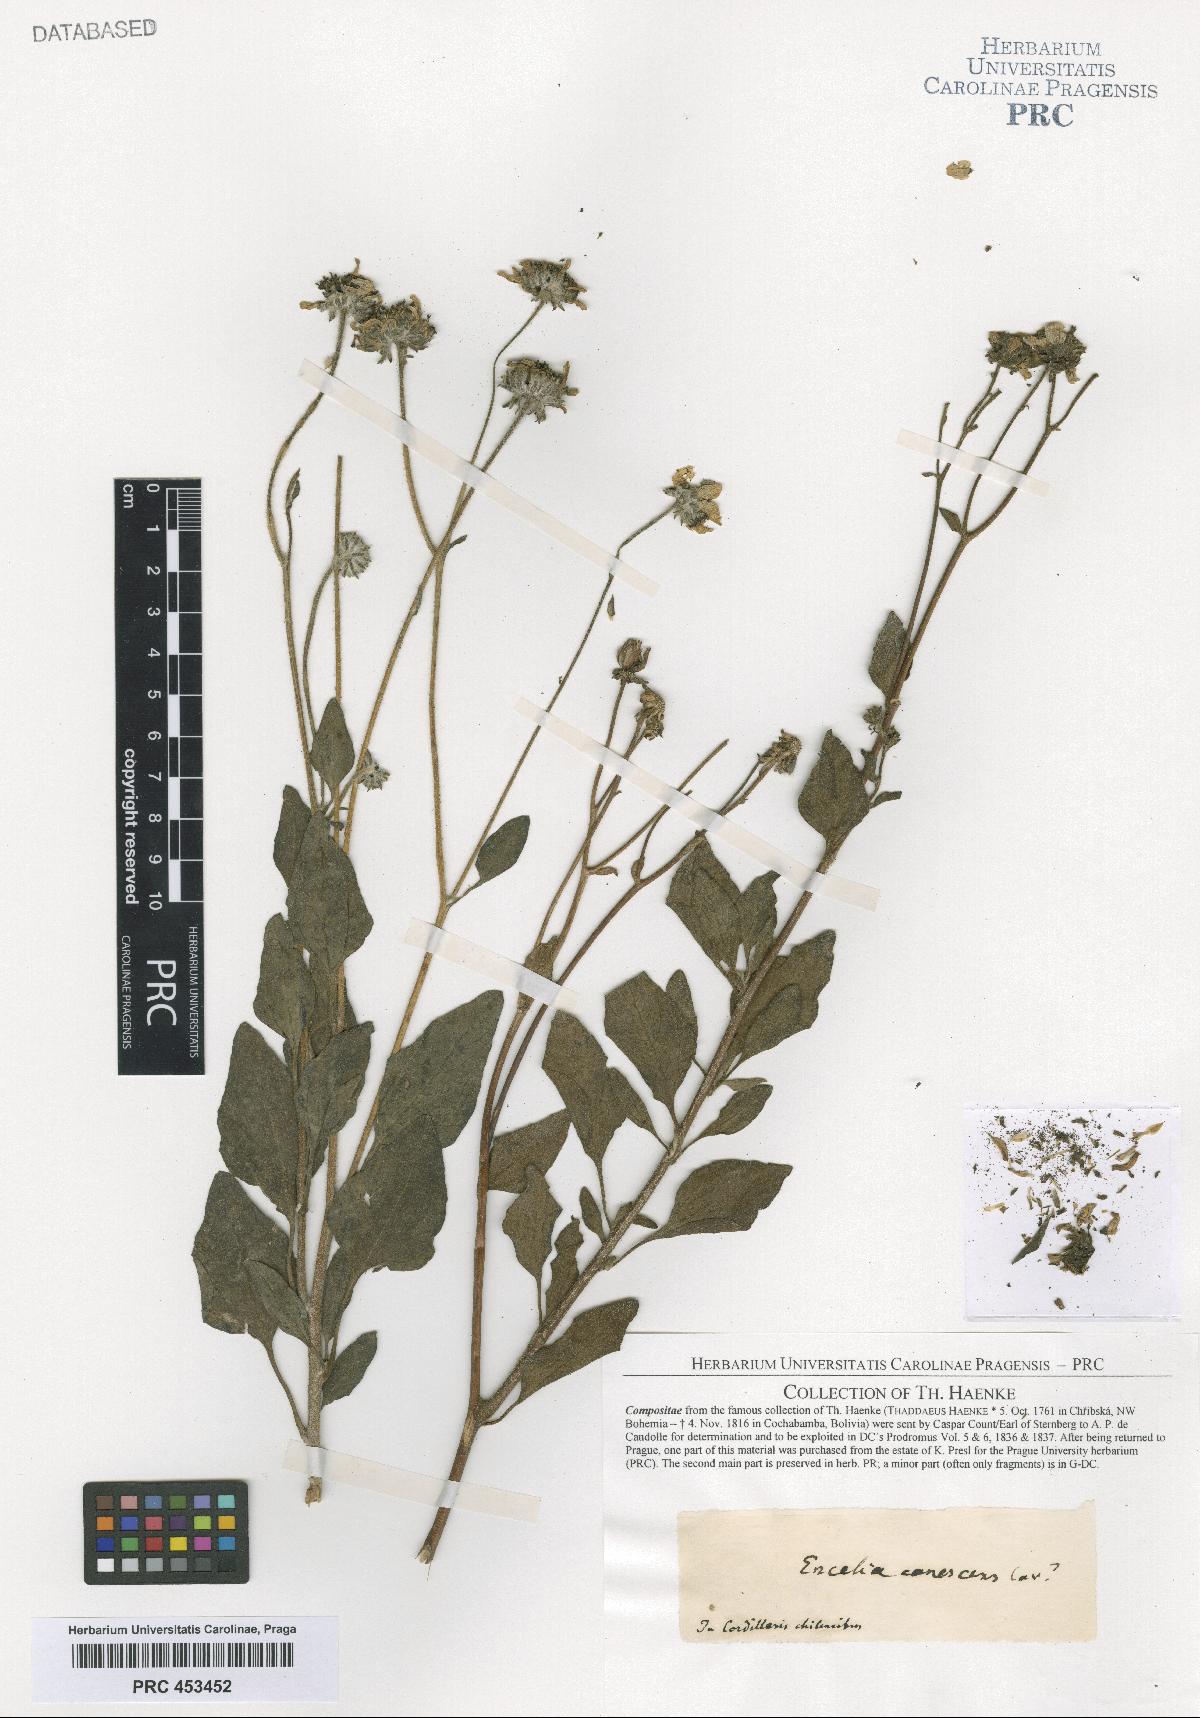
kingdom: Plantae
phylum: Tracheophyta
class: Magnoliopsida
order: Asterales
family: Asteraceae
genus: Encelia
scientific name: Encelia
